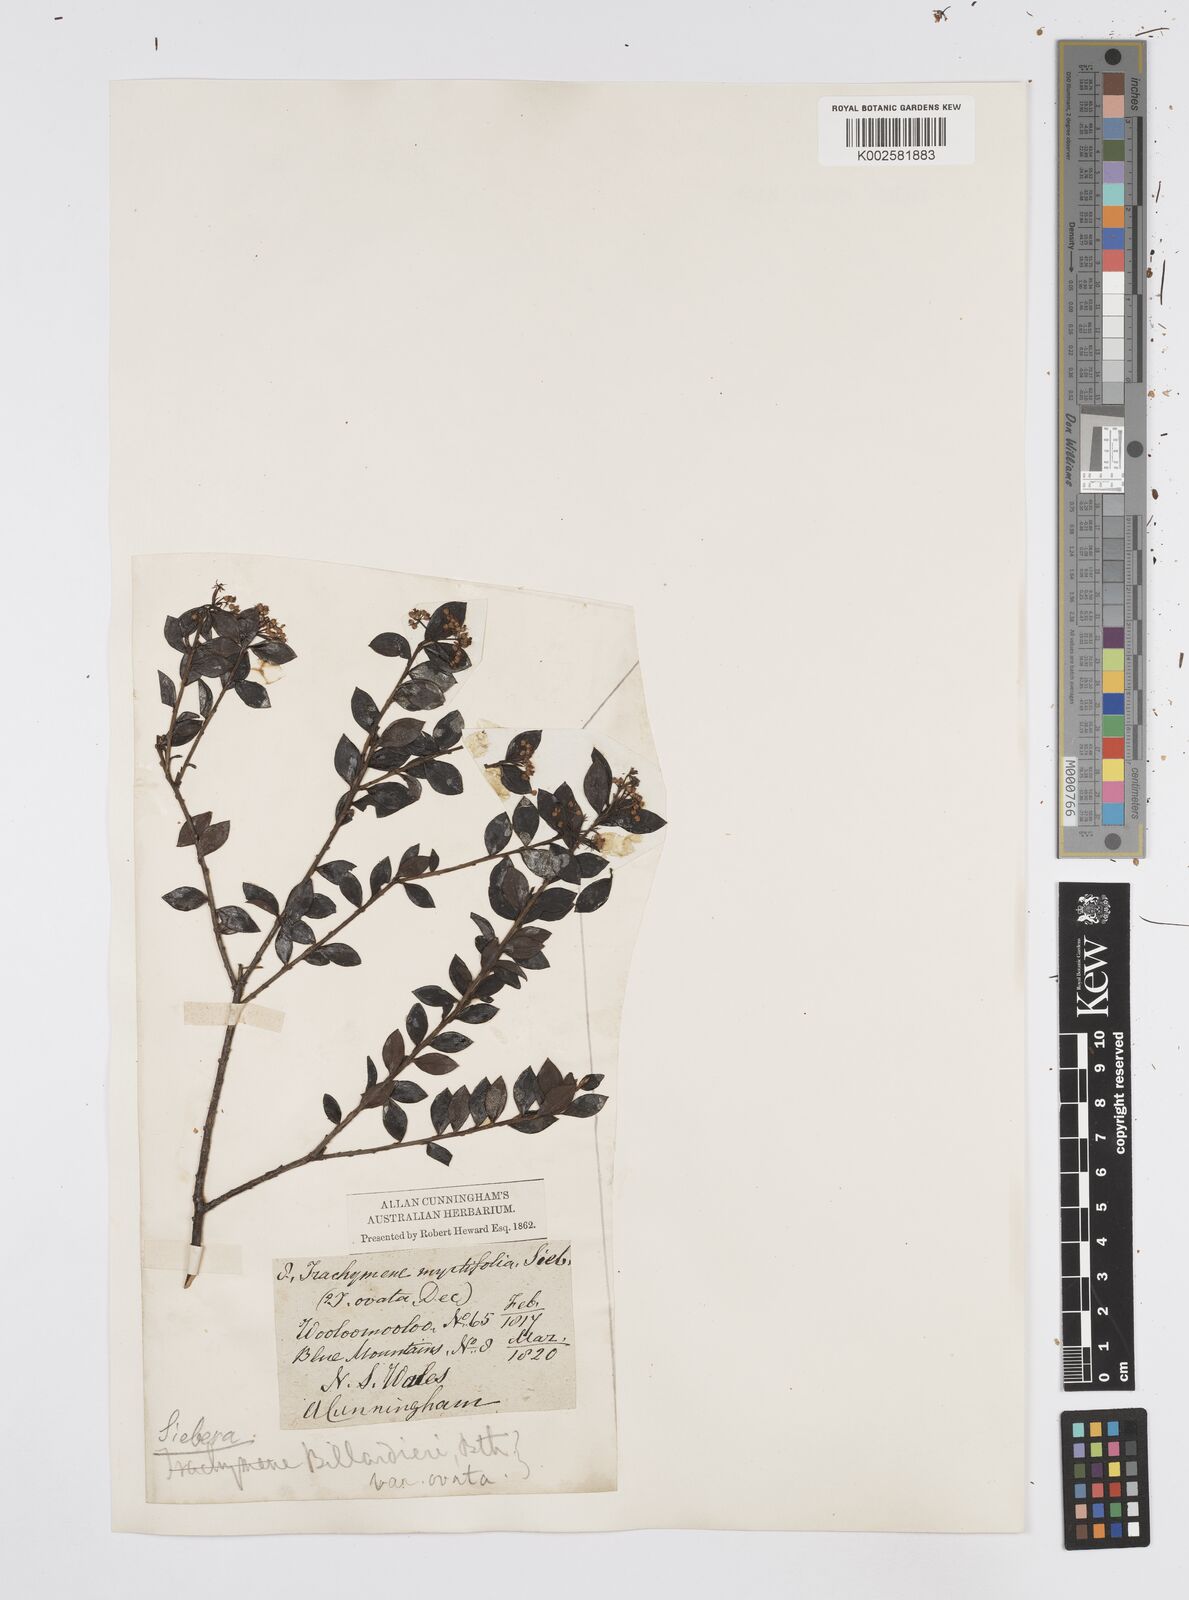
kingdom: Plantae
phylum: Tracheophyta
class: Magnoliopsida
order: Apiales
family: Apiaceae
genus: Platysace
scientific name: Platysace lanceolata
